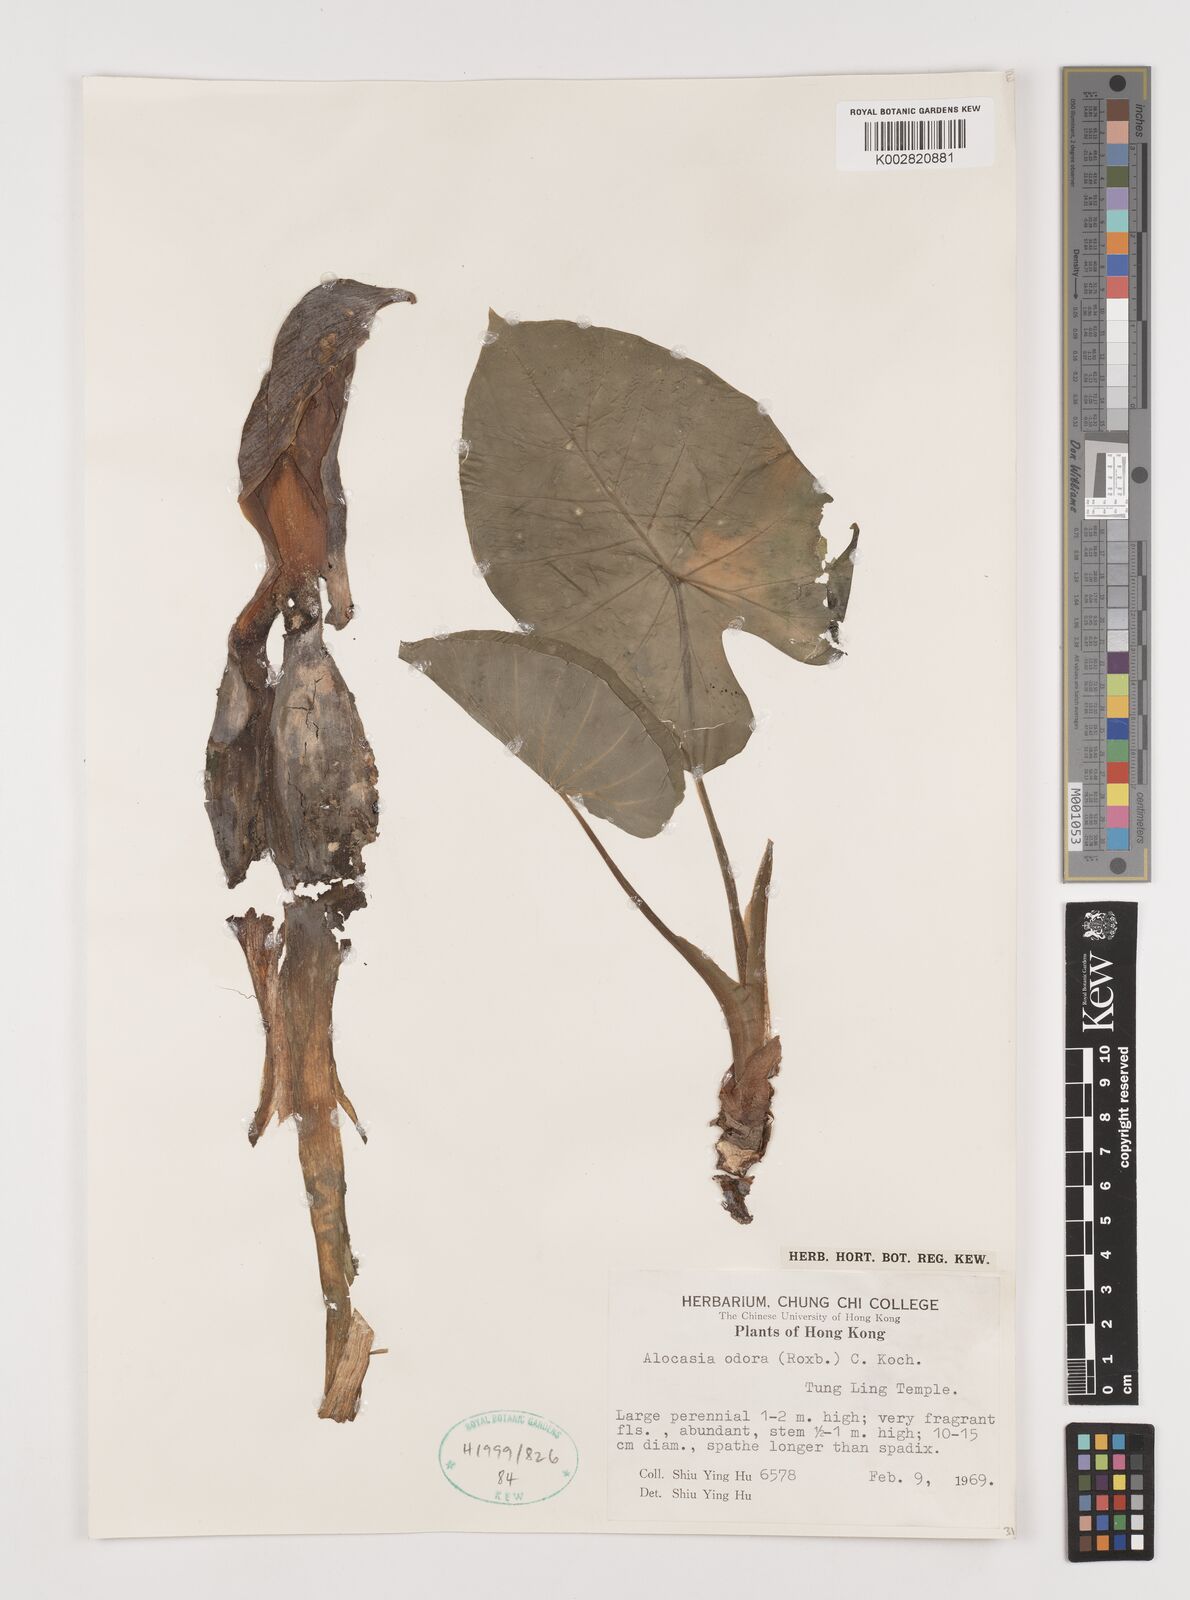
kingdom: Plantae
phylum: Tracheophyta
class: Liliopsida
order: Alismatales
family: Araceae
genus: Alocasia
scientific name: Alocasia odora
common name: Asian taro
